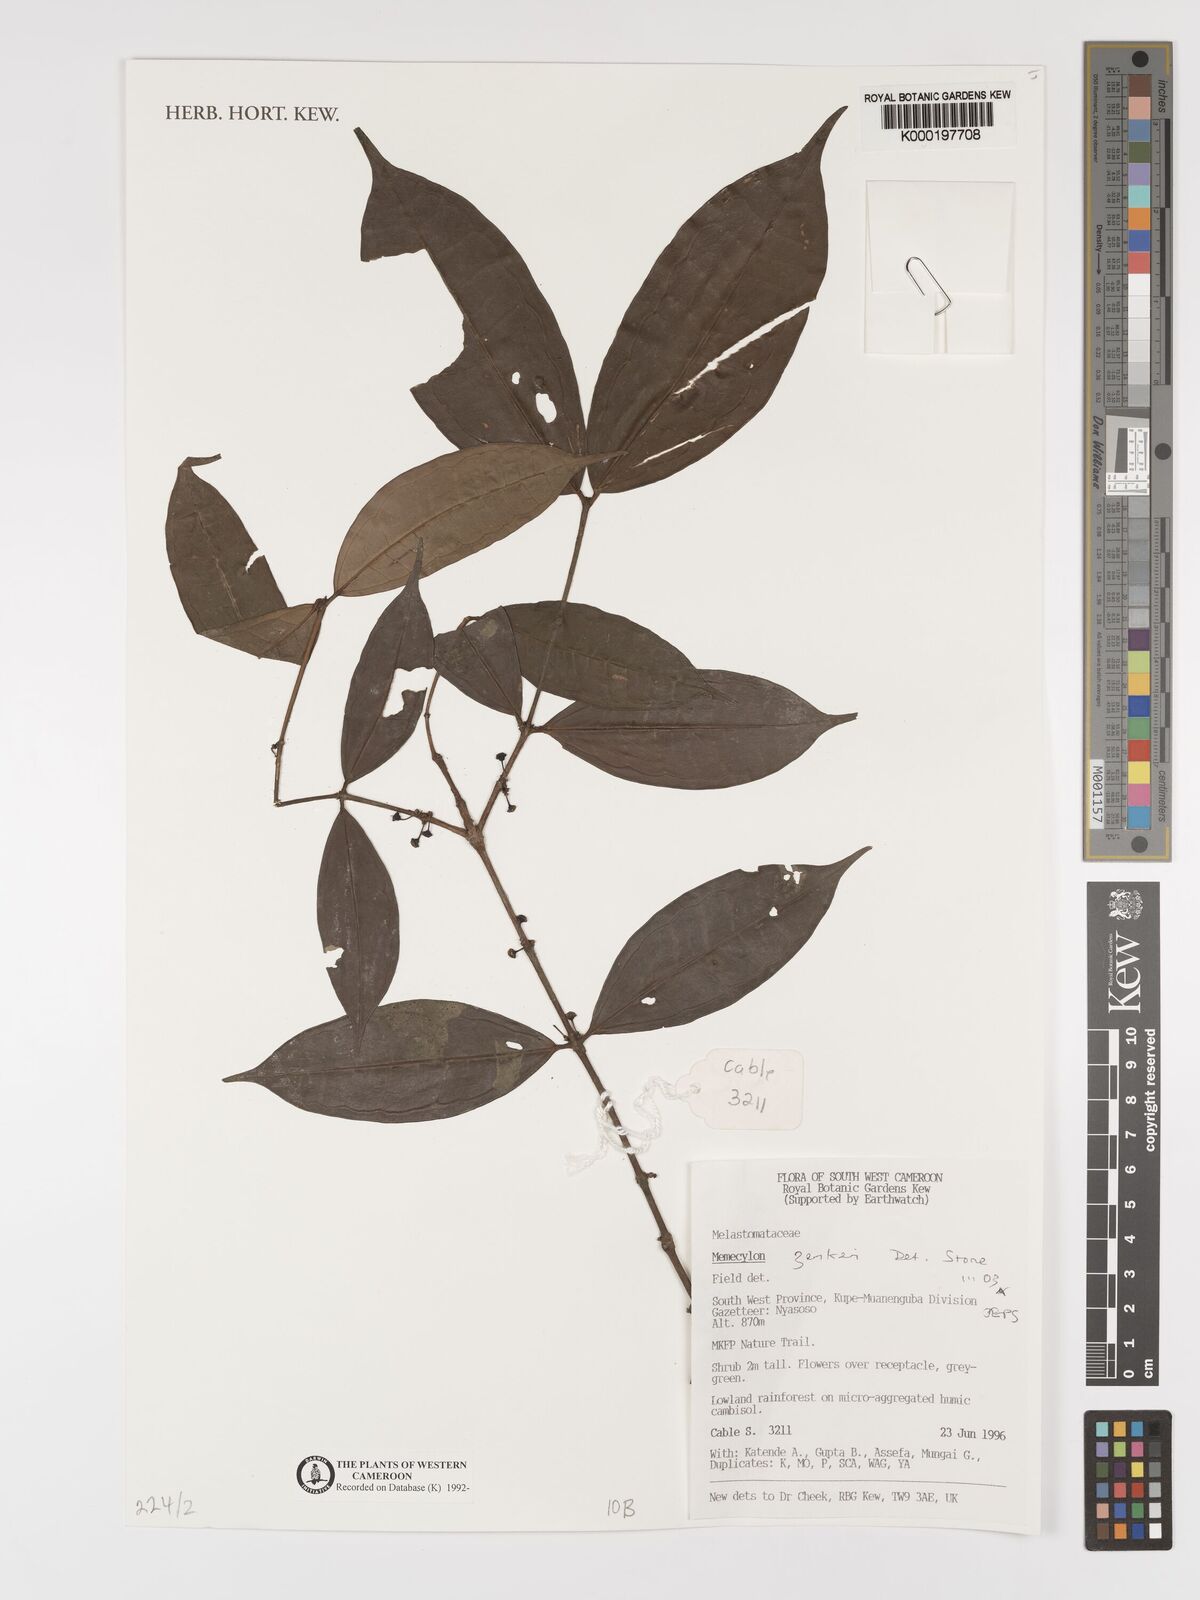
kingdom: Plantae
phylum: Tracheophyta
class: Magnoliopsida
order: Myrtales
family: Melastomataceae
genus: Memecylon
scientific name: Memecylon zenkeri
